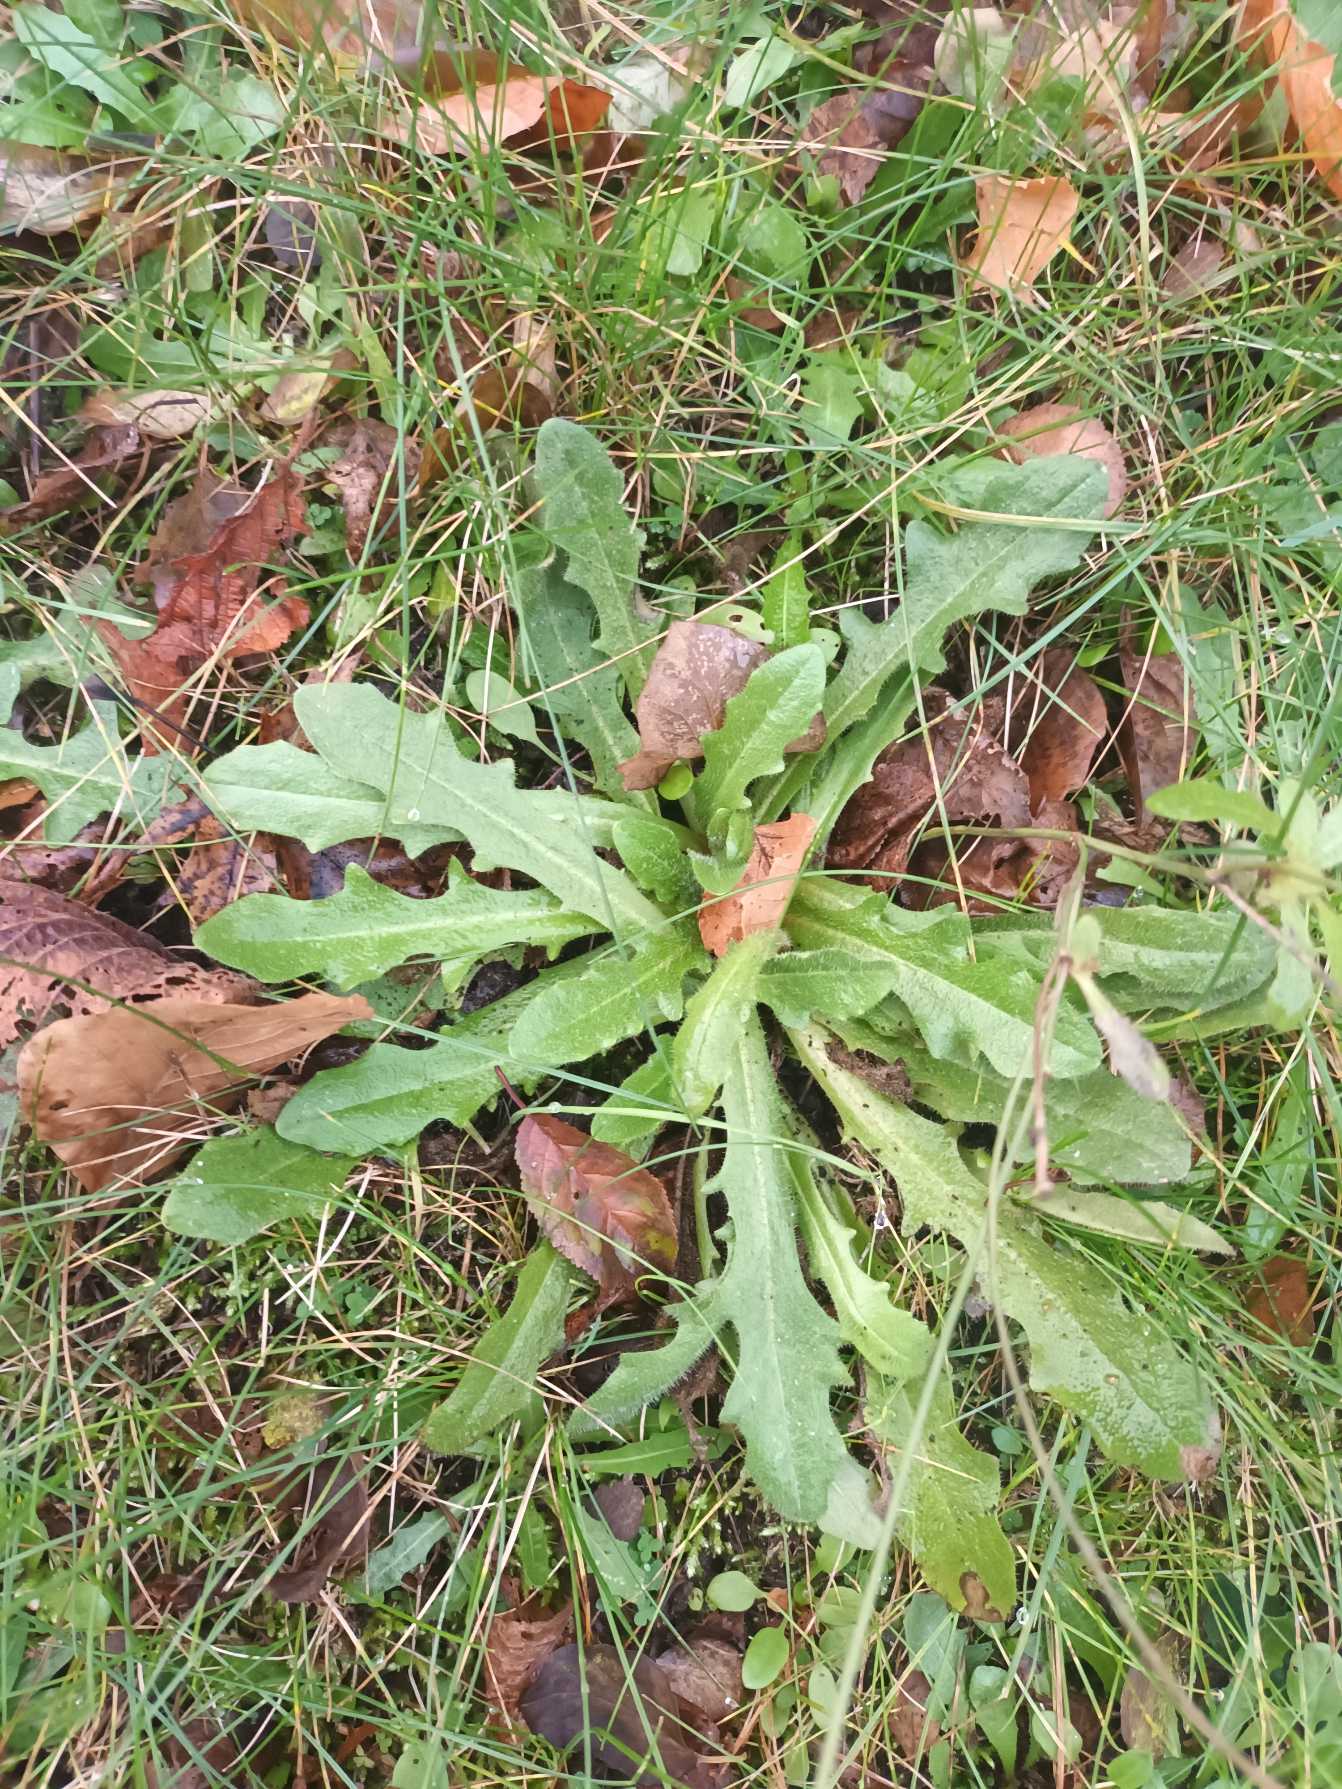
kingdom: Plantae
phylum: Tracheophyta
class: Magnoliopsida
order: Asterales
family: Asteraceae
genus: Hypochaeris
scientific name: Hypochaeris radicata
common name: Almindelig kongepen
